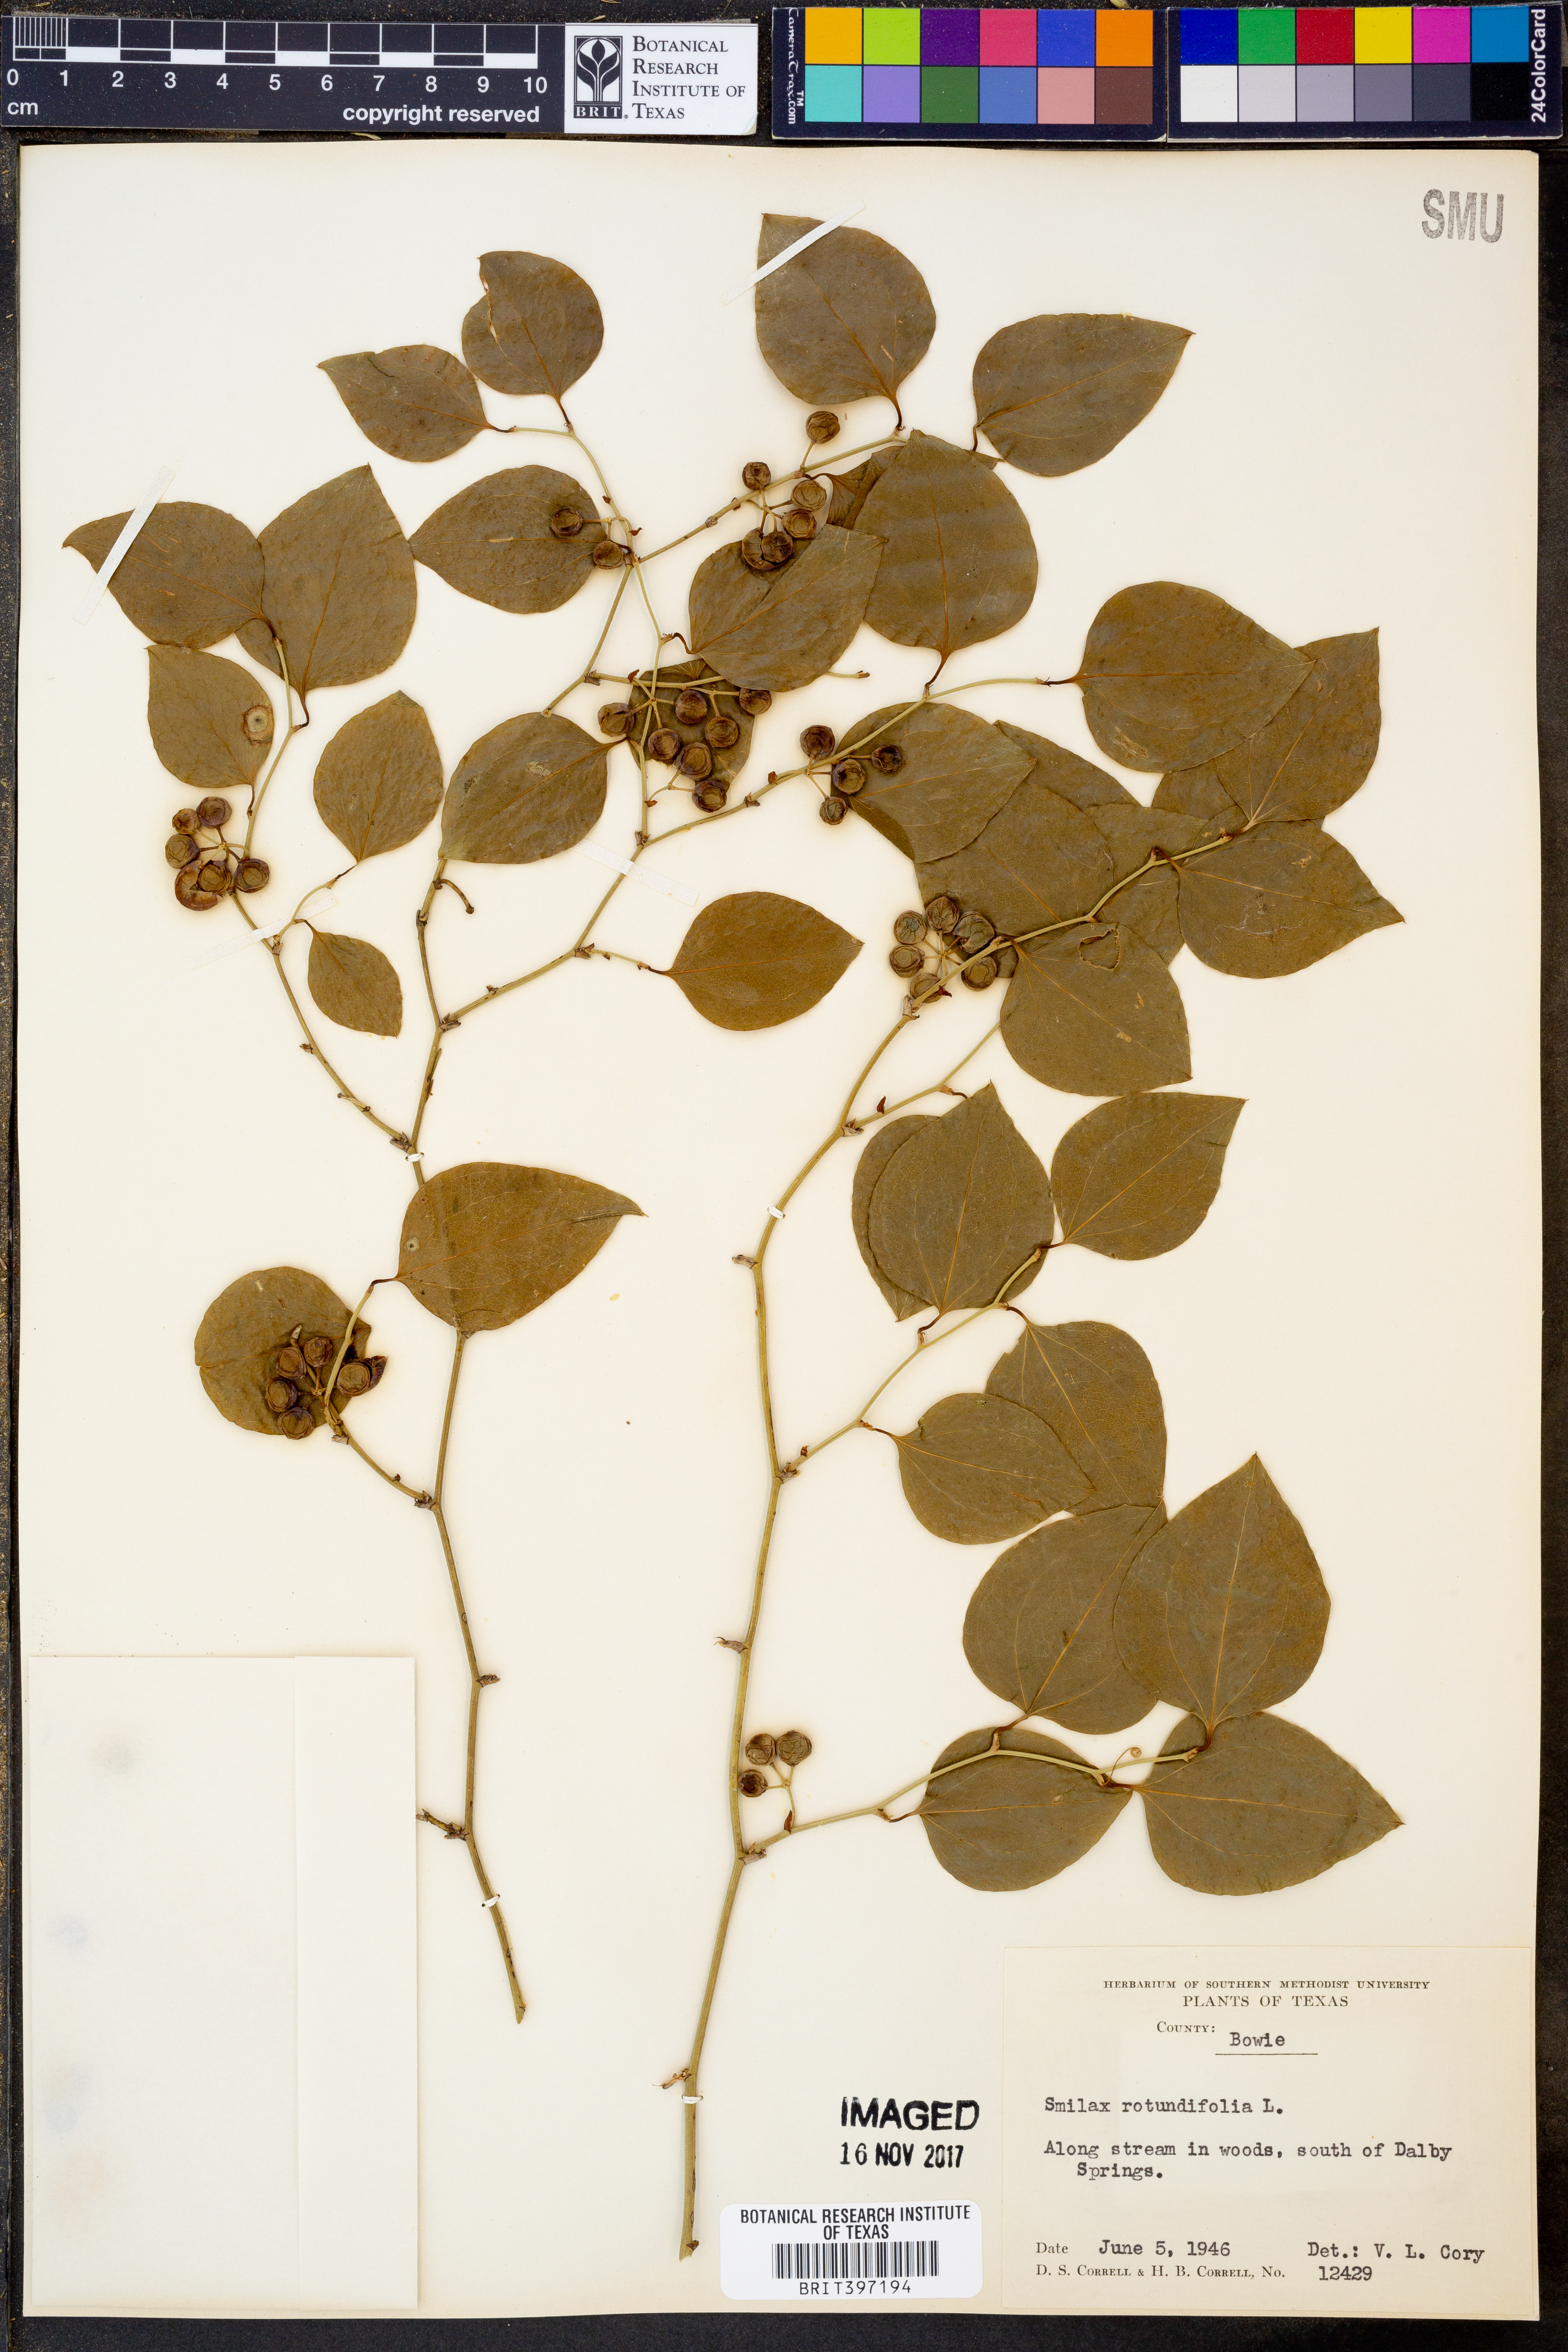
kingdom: Plantae
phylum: Tracheophyta
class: Liliopsida
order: Liliales
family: Smilacaceae
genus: Smilax
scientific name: Smilax rotundifolia
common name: Bullbriar
